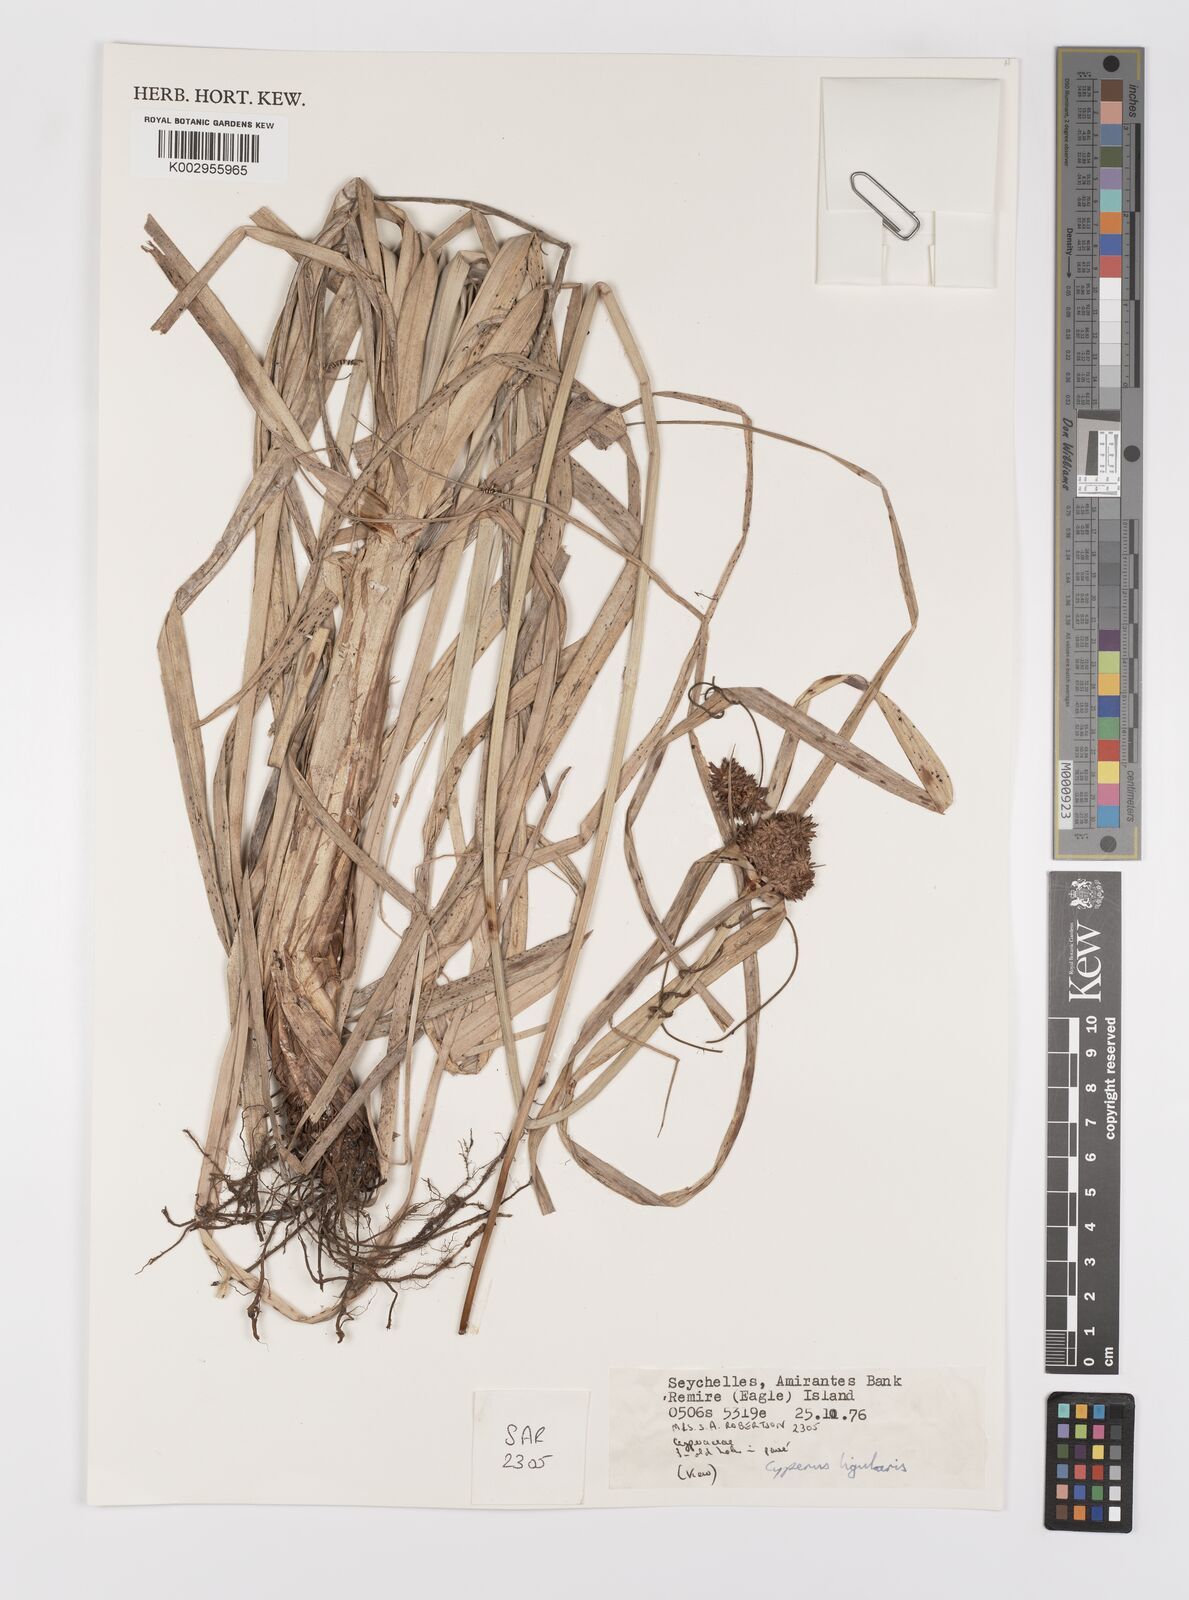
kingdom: Plantae
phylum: Tracheophyta
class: Liliopsida
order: Poales
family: Cyperaceae
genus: Cyperus
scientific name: Cyperus ligularis
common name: Swamp flat sedge
